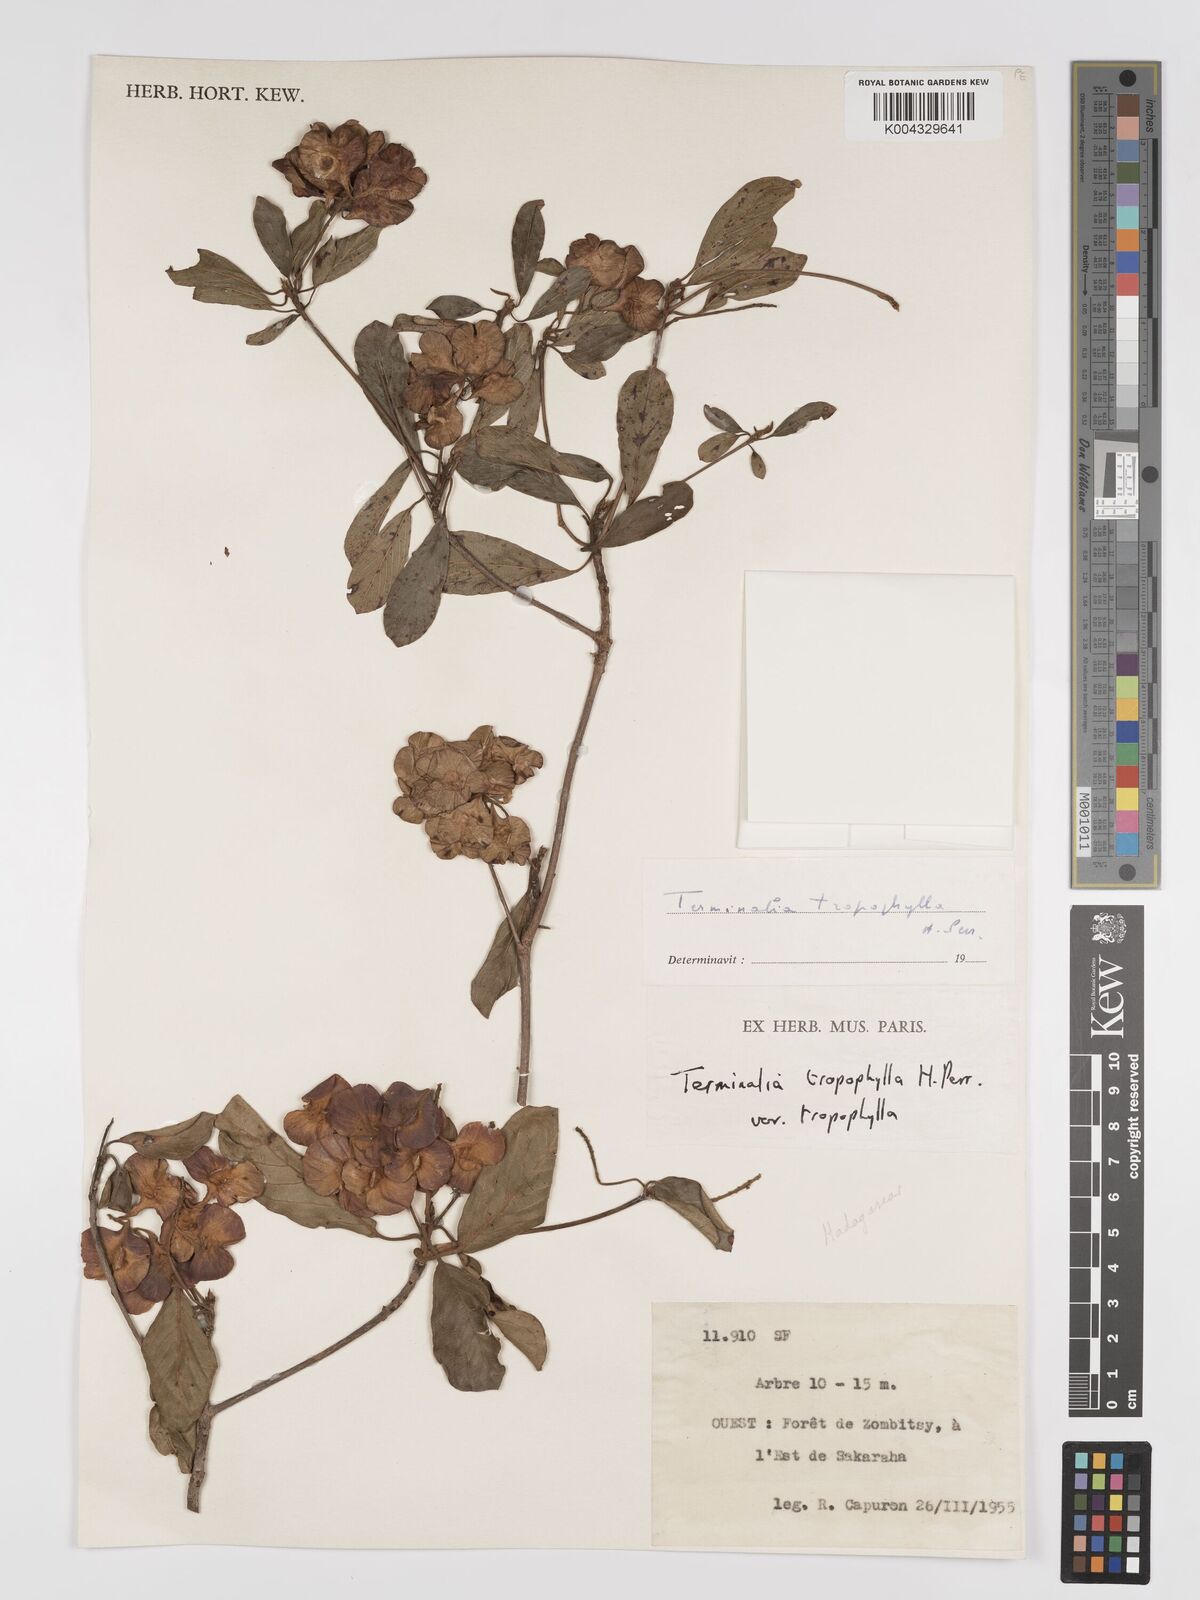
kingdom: Plantae
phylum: Tracheophyta
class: Magnoliopsida
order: Myrtales
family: Combretaceae
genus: Terminalia
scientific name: Terminalia tropophylla
